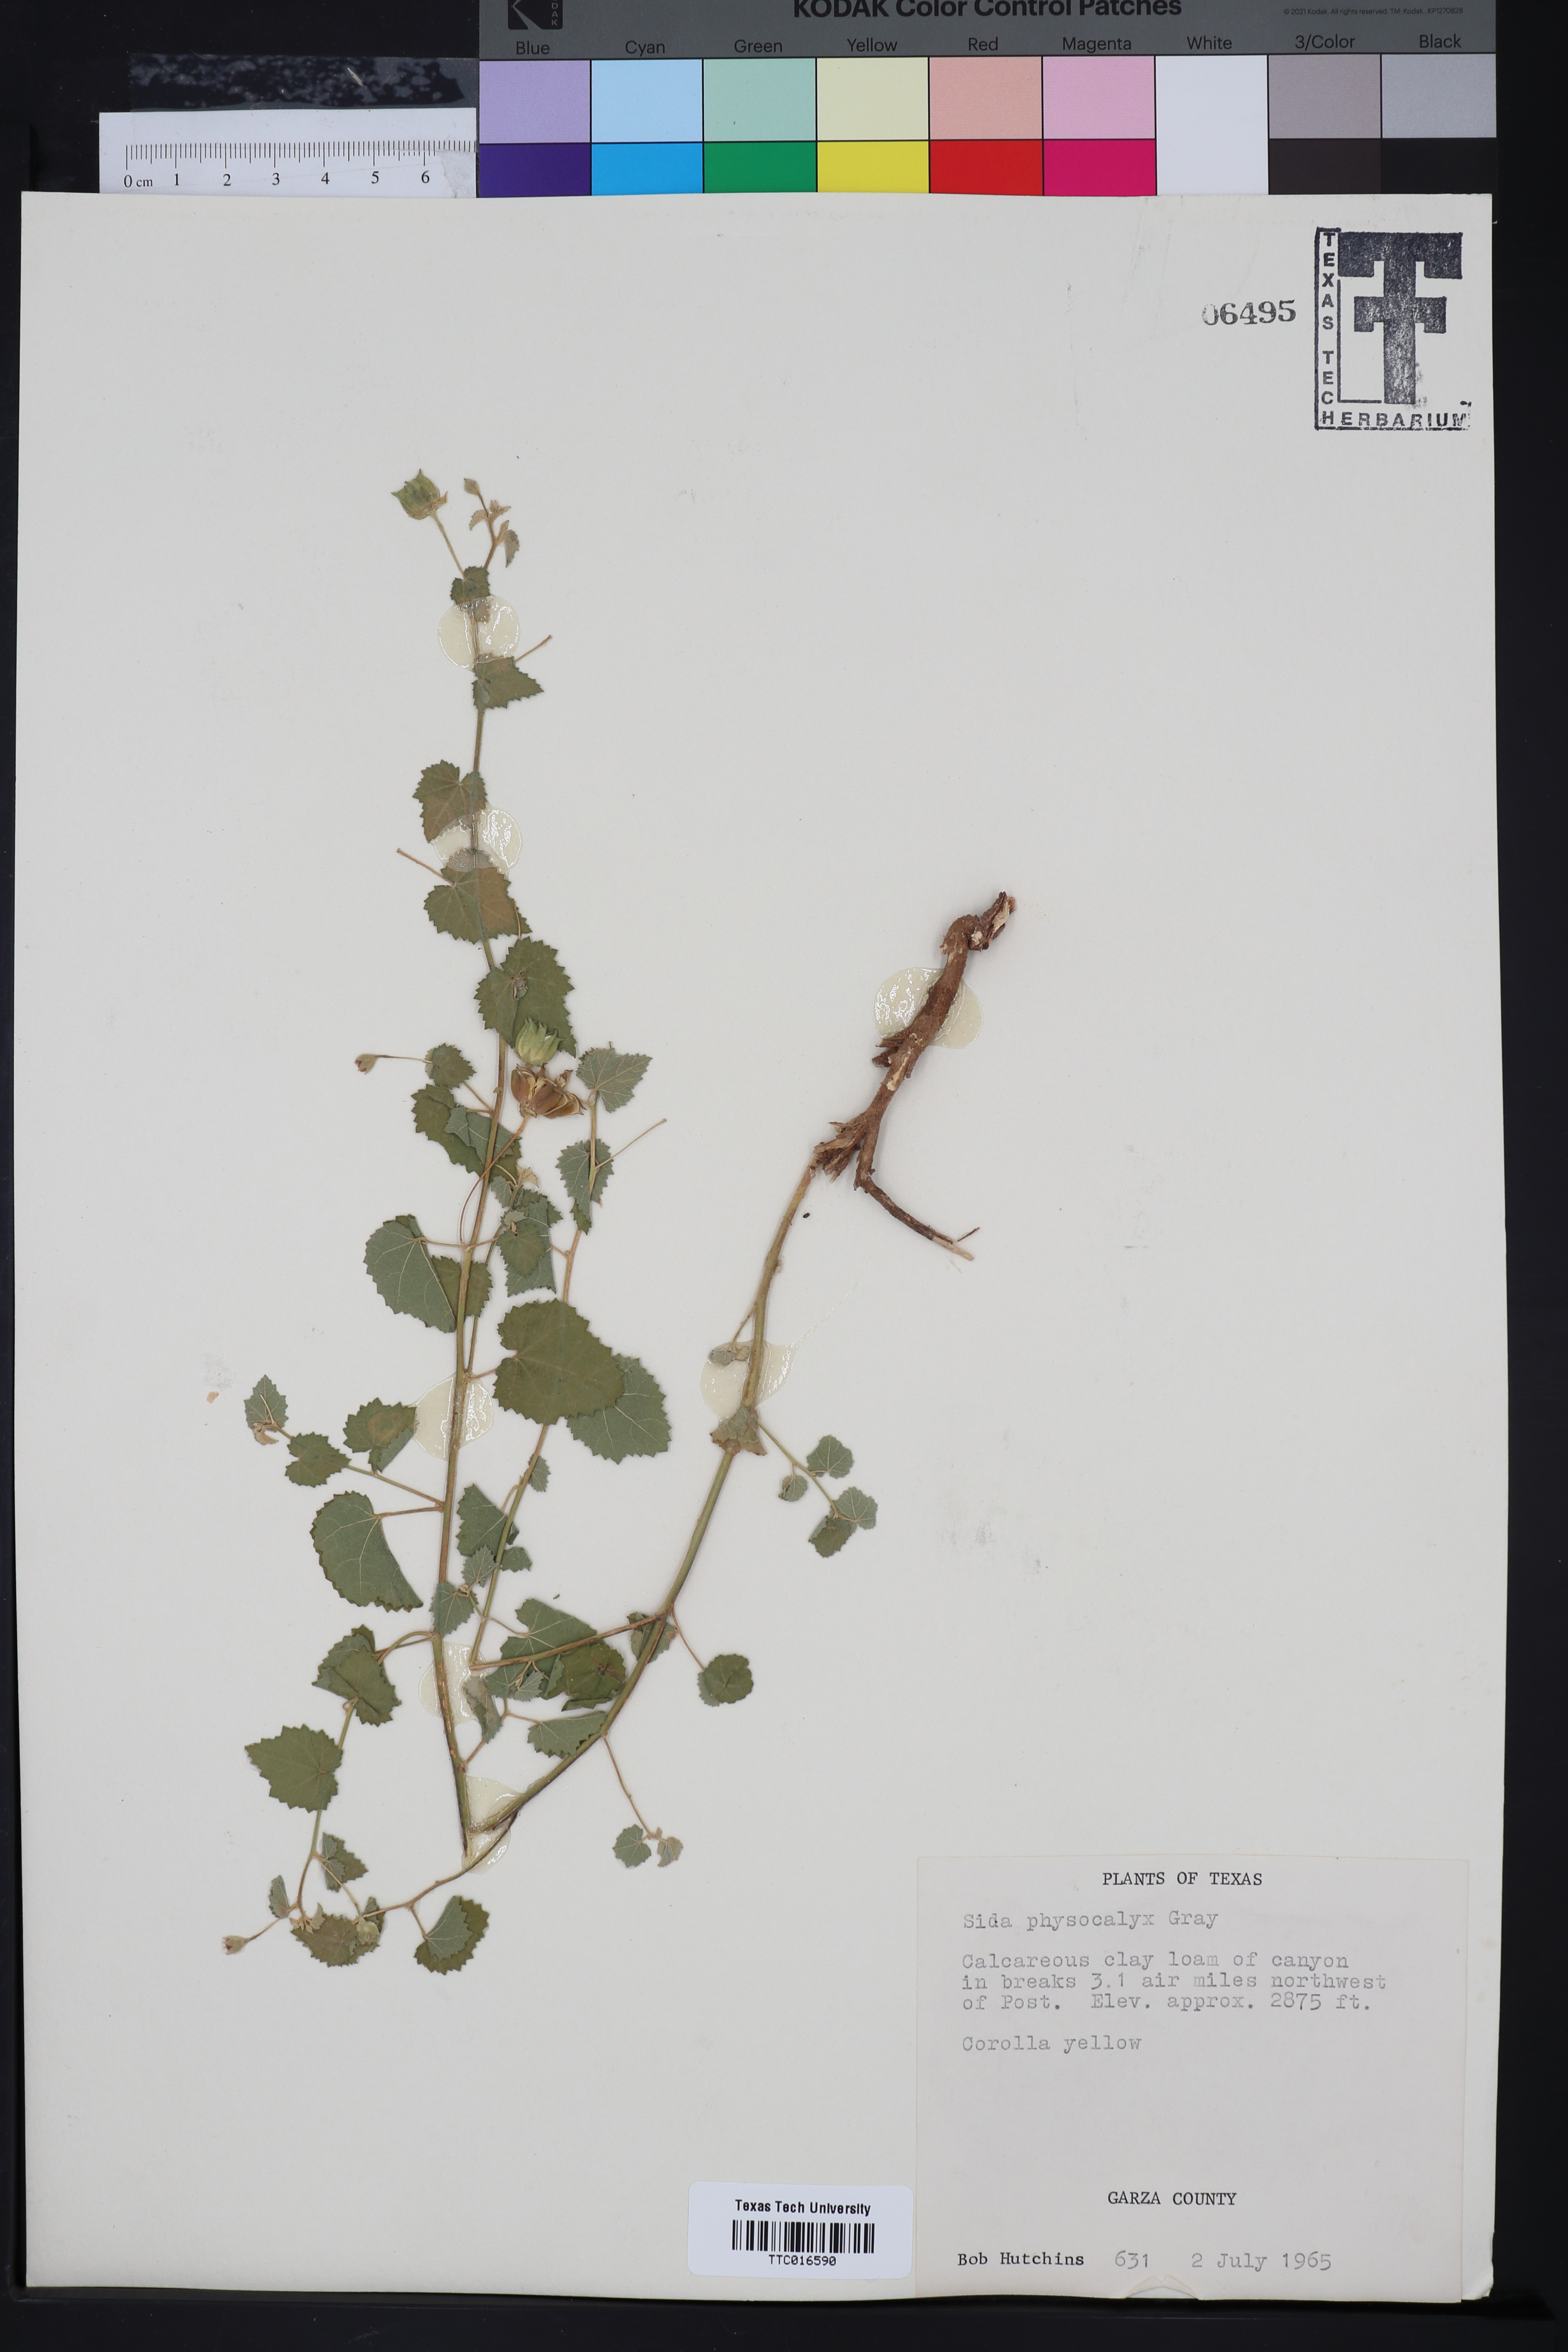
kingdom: Plantae
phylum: Tracheophyta
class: Magnoliopsida
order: Malvales
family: Malvaceae
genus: Rhynchosida
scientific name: Rhynchosida physocalyx
